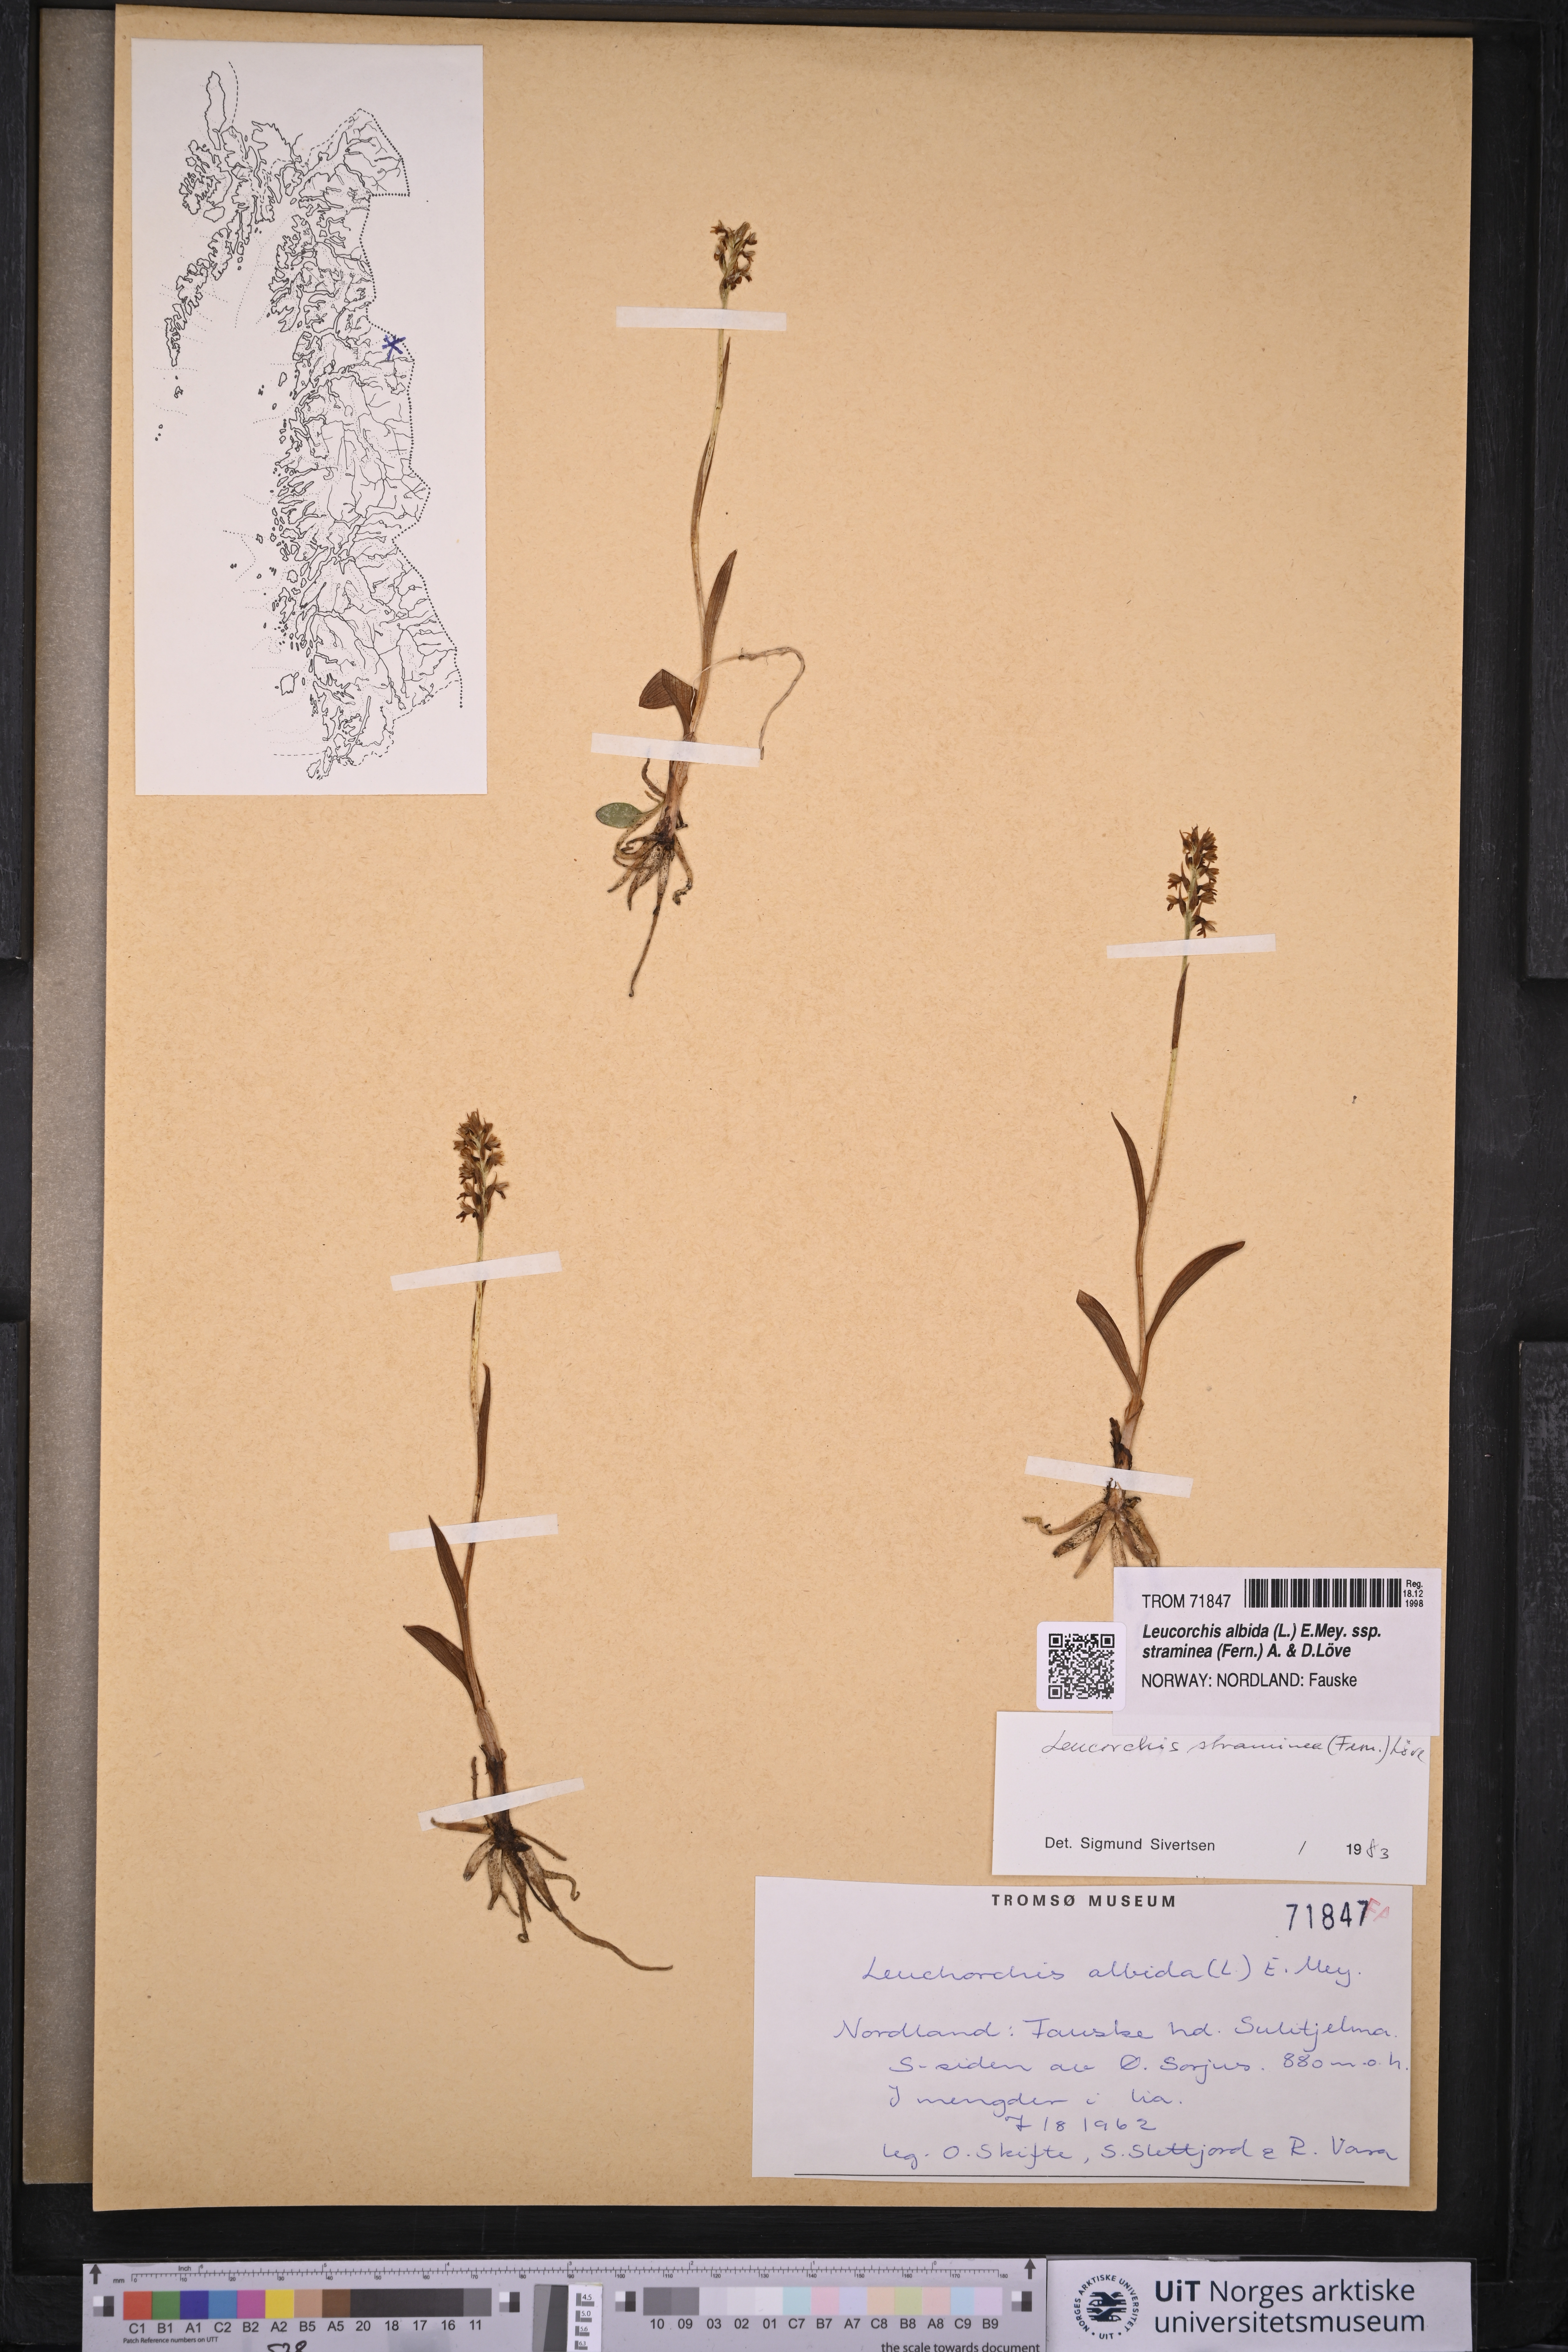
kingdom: Plantae
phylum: Tracheophyta
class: Liliopsida
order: Asparagales
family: Orchidaceae
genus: Pseudorchis
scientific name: Pseudorchis straminea
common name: Vanilla-scented bog orchid
